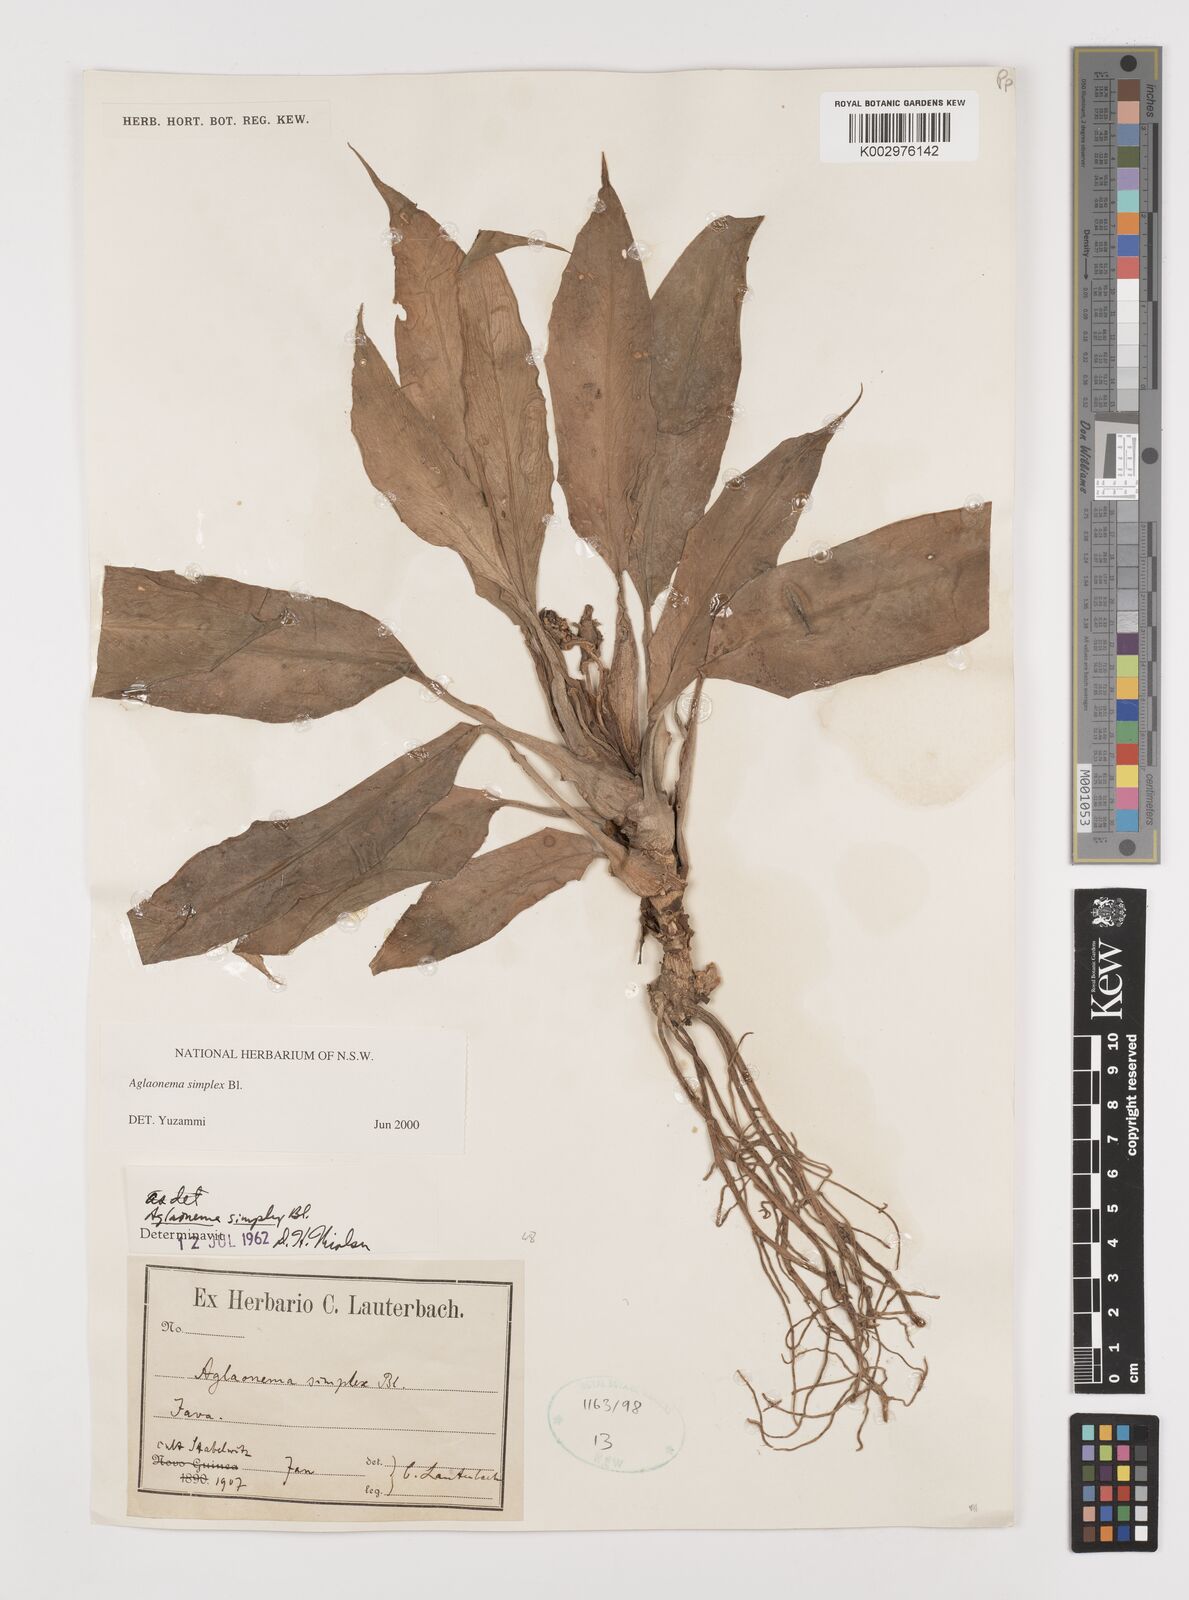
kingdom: Plantae
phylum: Tracheophyta
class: Liliopsida
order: Alismatales
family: Araceae
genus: Aglaonema
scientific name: Aglaonema simplex
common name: Malayan-sword
